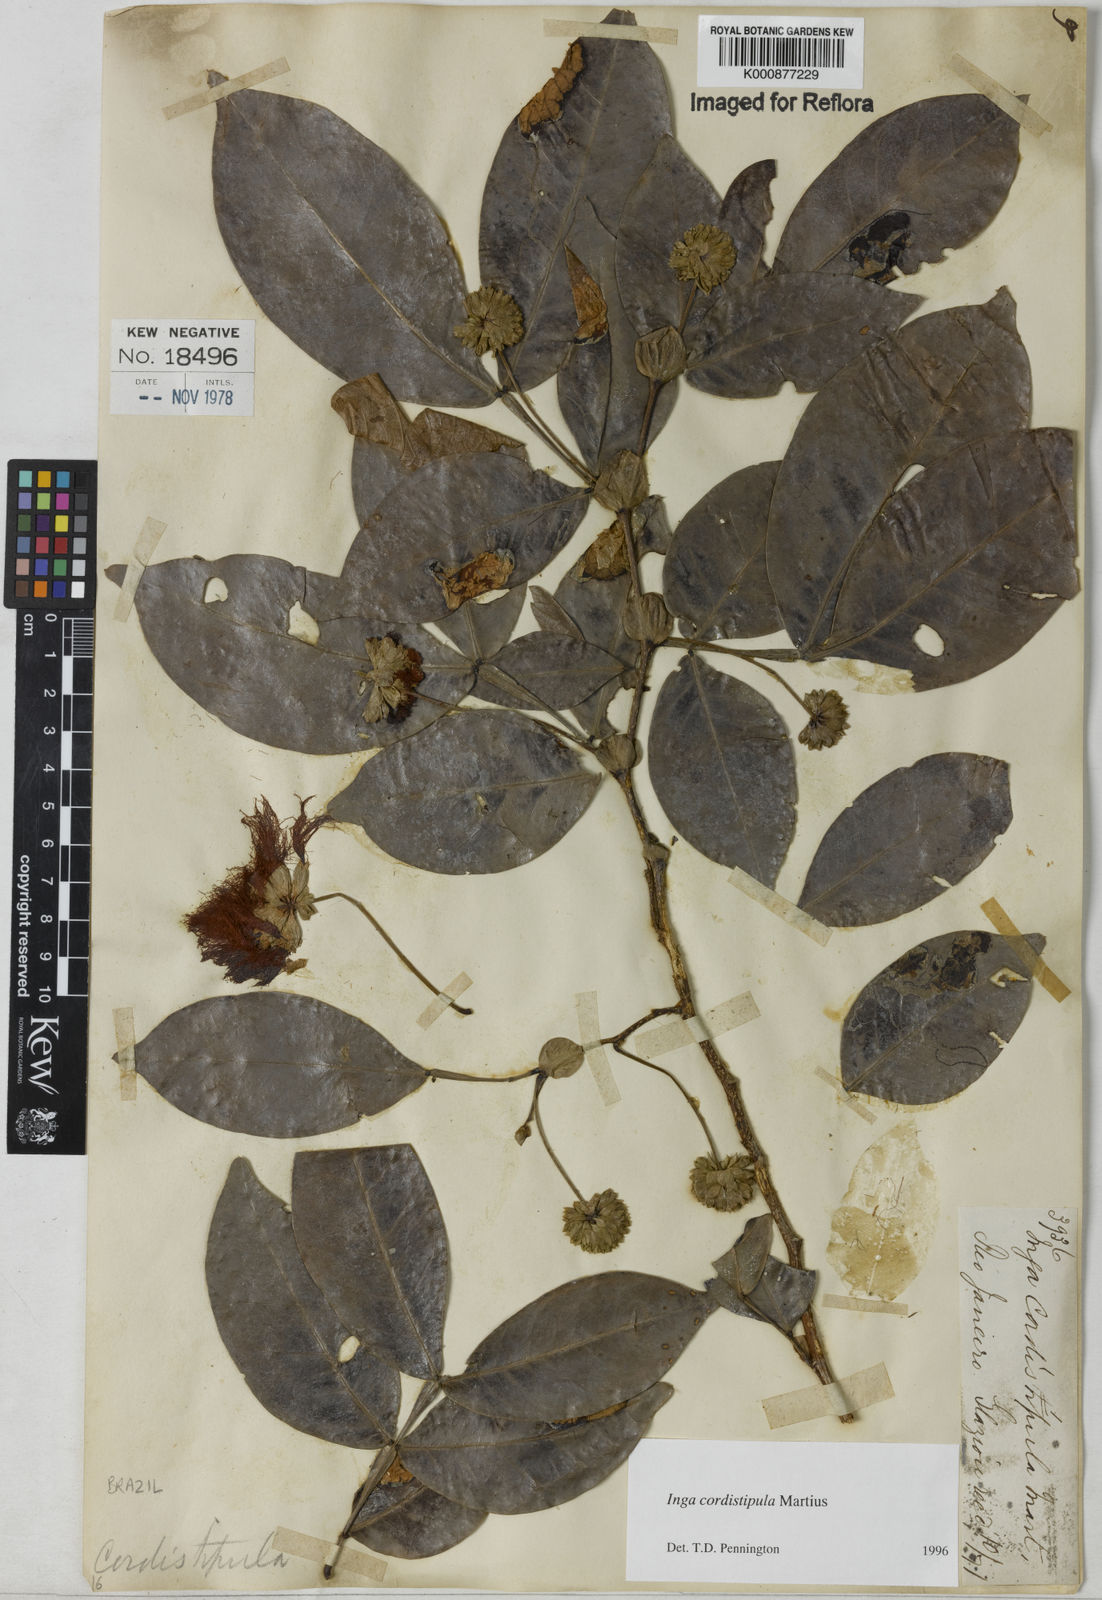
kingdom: Plantae
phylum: Tracheophyta
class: Magnoliopsida
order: Fabales
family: Fabaceae
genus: Inga
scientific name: Inga cordistipula
